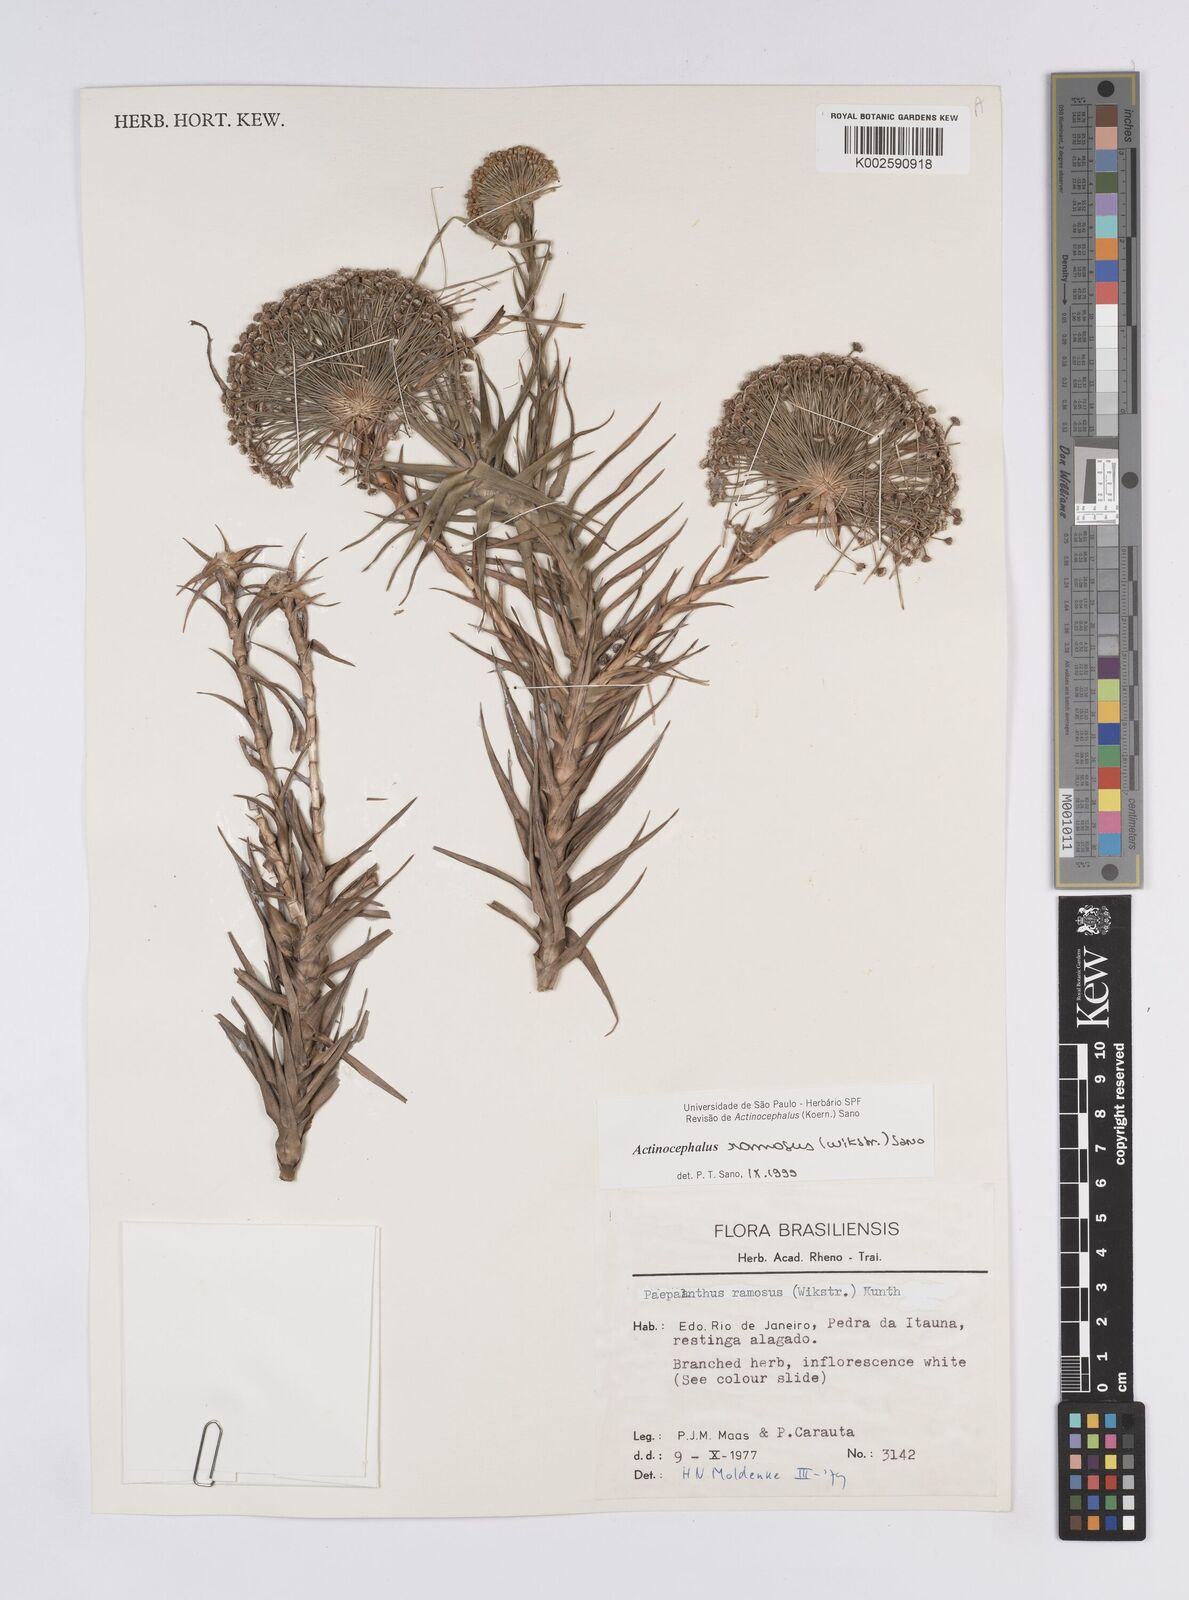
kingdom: Plantae
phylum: Tracheophyta
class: Liliopsida
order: Poales
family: Eriocaulaceae
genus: Paepalanthus
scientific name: Paepalanthus ramosus
